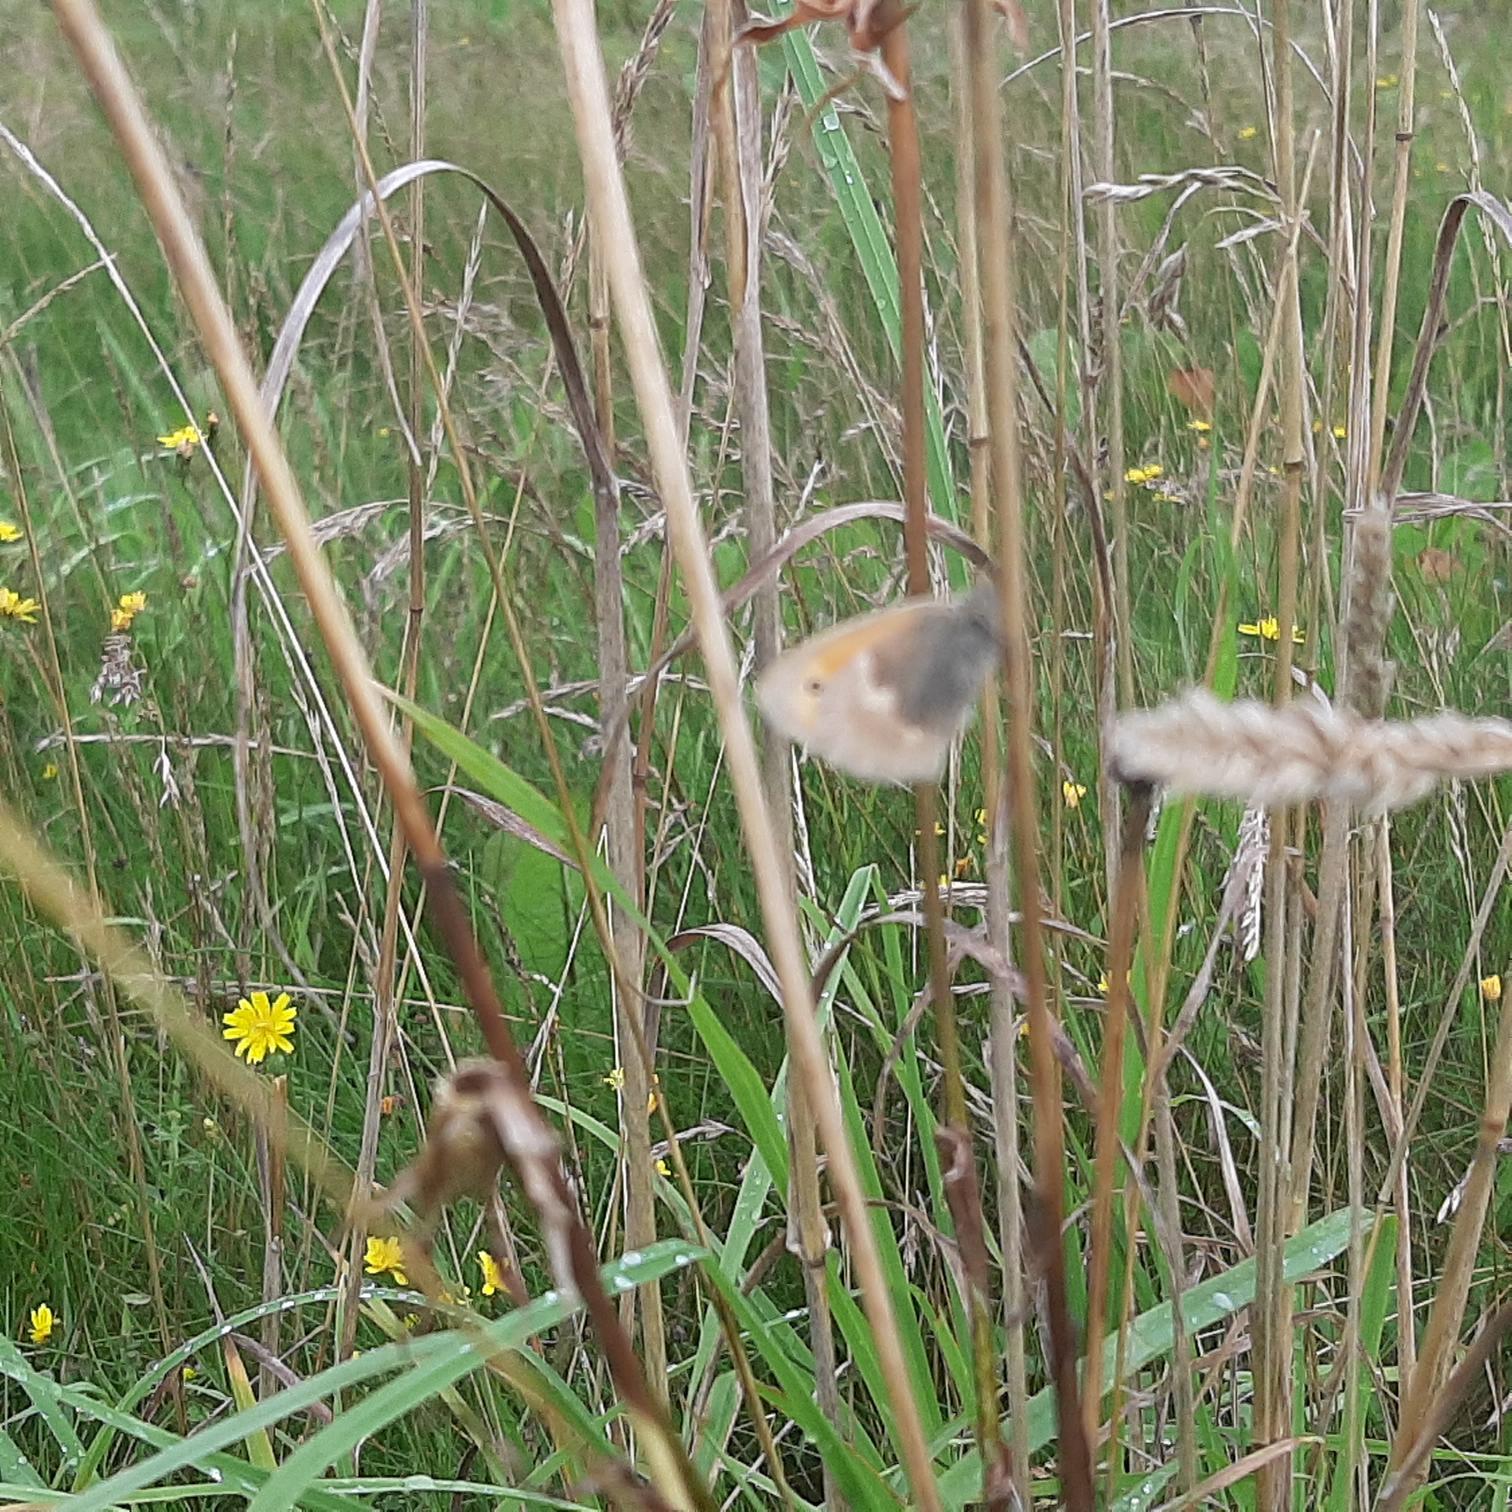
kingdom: Animalia
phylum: Arthropoda
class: Insecta
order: Lepidoptera
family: Nymphalidae
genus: Coenonympha
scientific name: Coenonympha pamphilus
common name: Okkergul randøje
